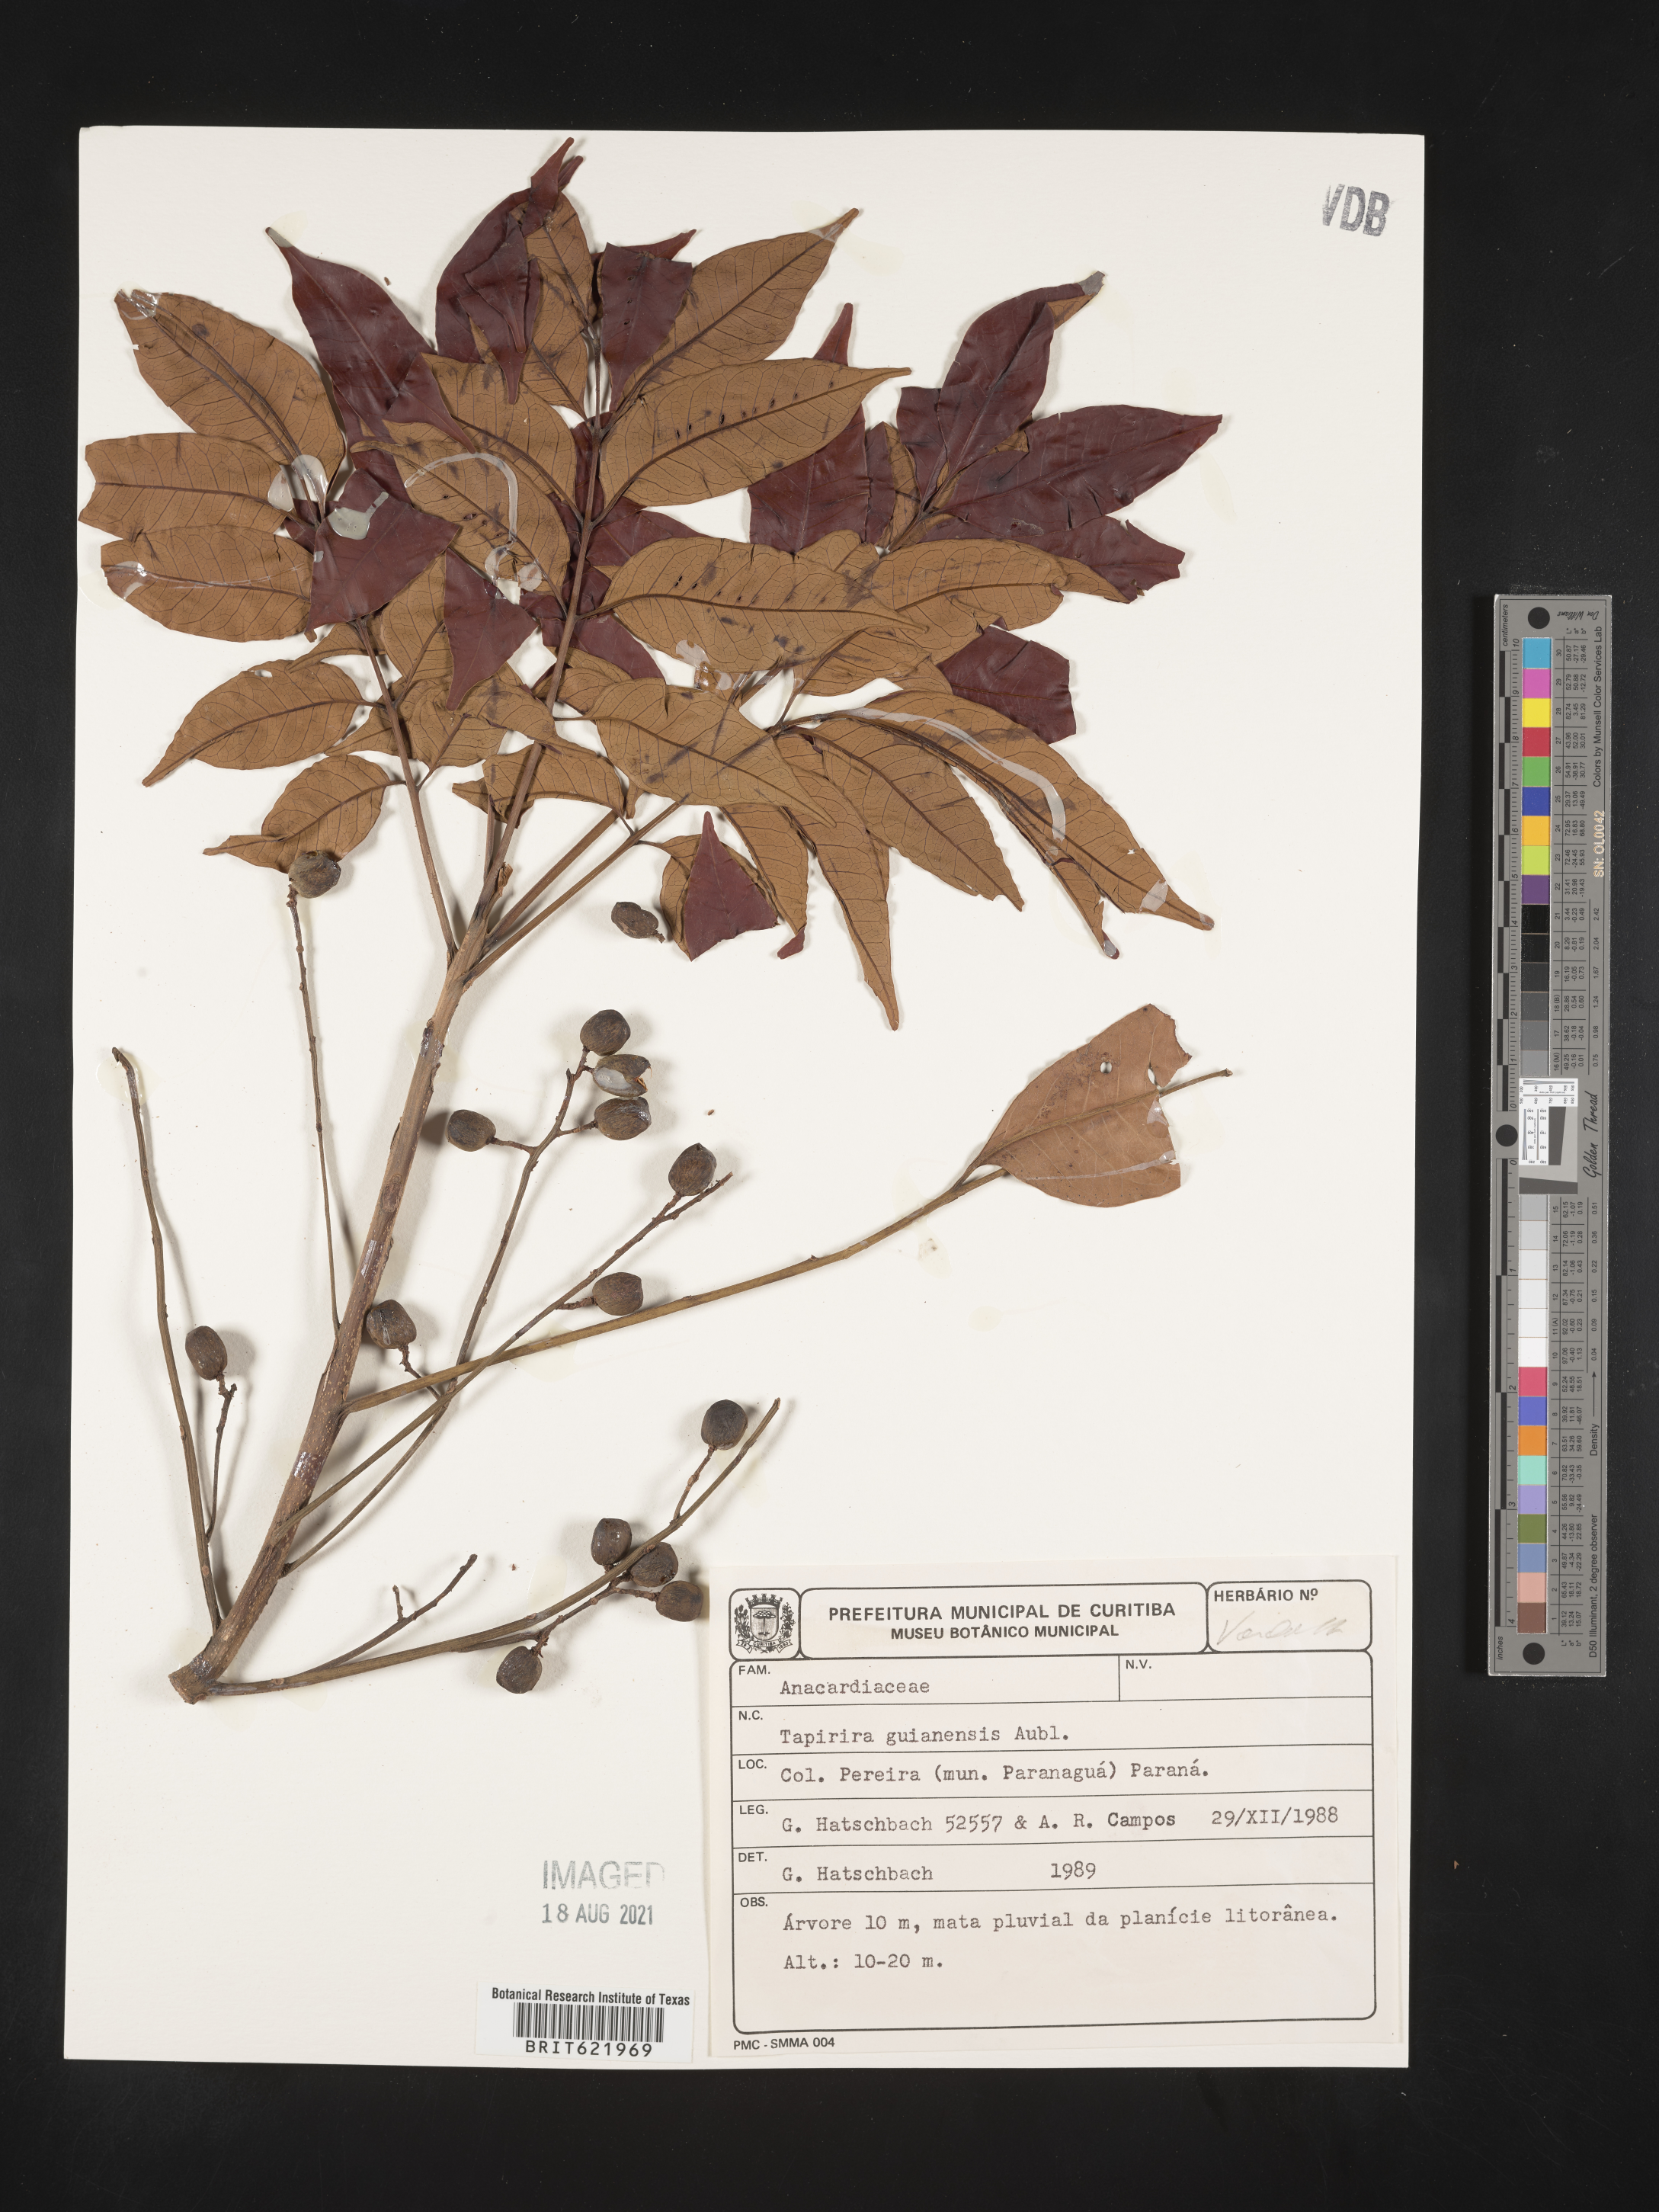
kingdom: Plantae
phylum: Tracheophyta
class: Magnoliopsida
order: Sapindales
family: Anacardiaceae
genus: Tapirira
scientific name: Tapirira guianensis
